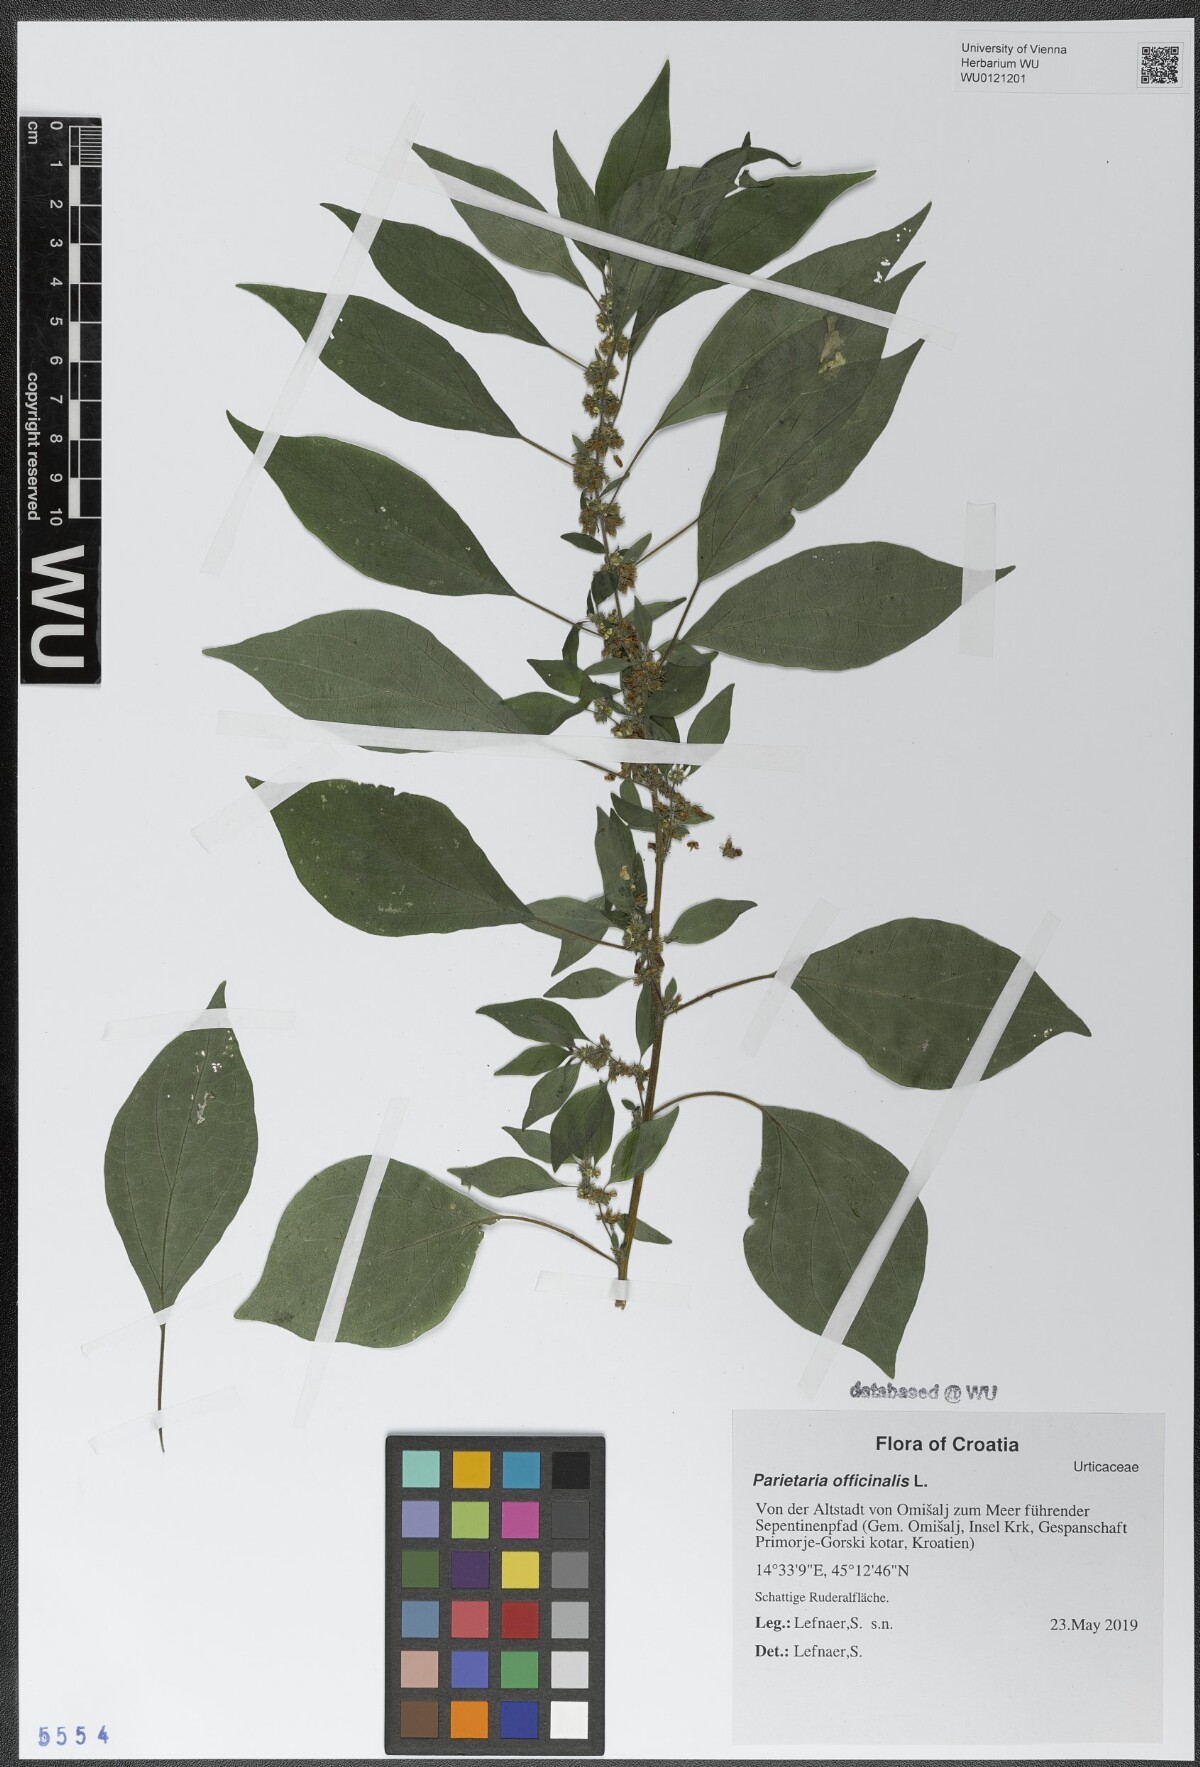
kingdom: Plantae
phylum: Tracheophyta
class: Magnoliopsida
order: Rosales
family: Urticaceae
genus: Parietaria
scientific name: Parietaria officinalis
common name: Eastern pellitory-of-the-wall
